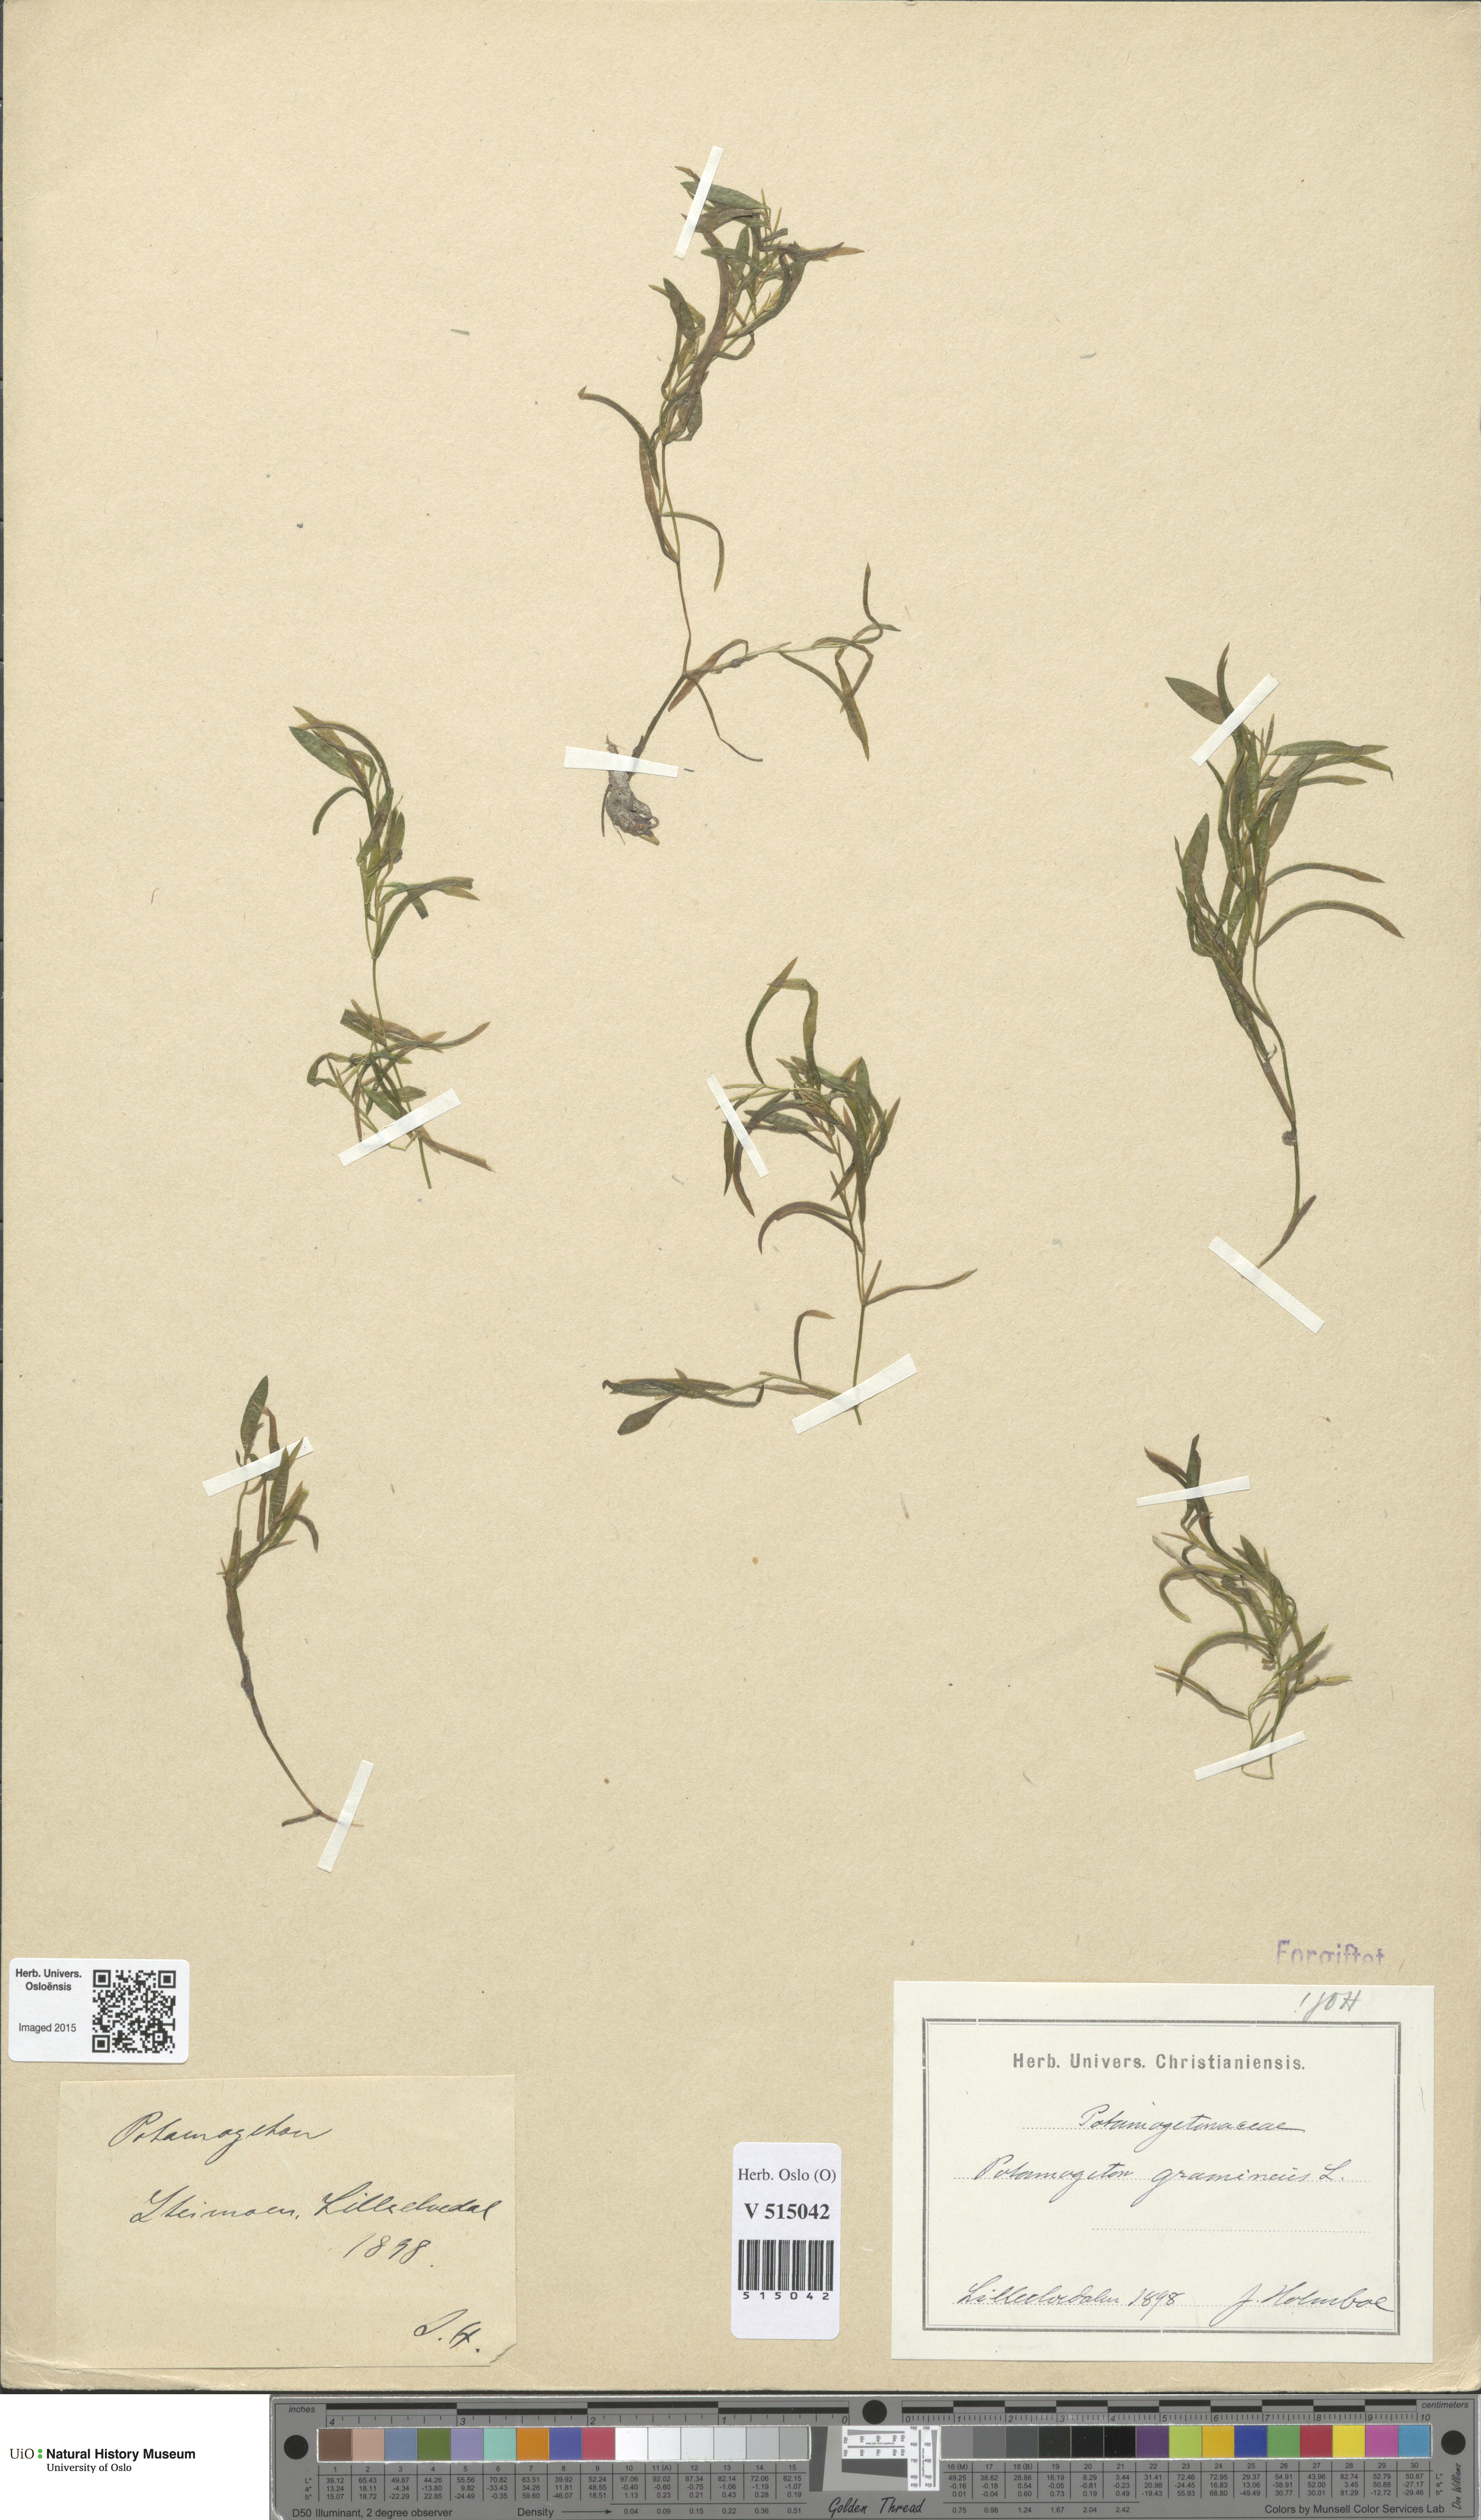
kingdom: Plantae
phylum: Tracheophyta
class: Liliopsida
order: Alismatales
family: Potamogetonaceae
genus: Potamogeton
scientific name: Potamogeton gramineus
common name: Various-leaved pondweed
